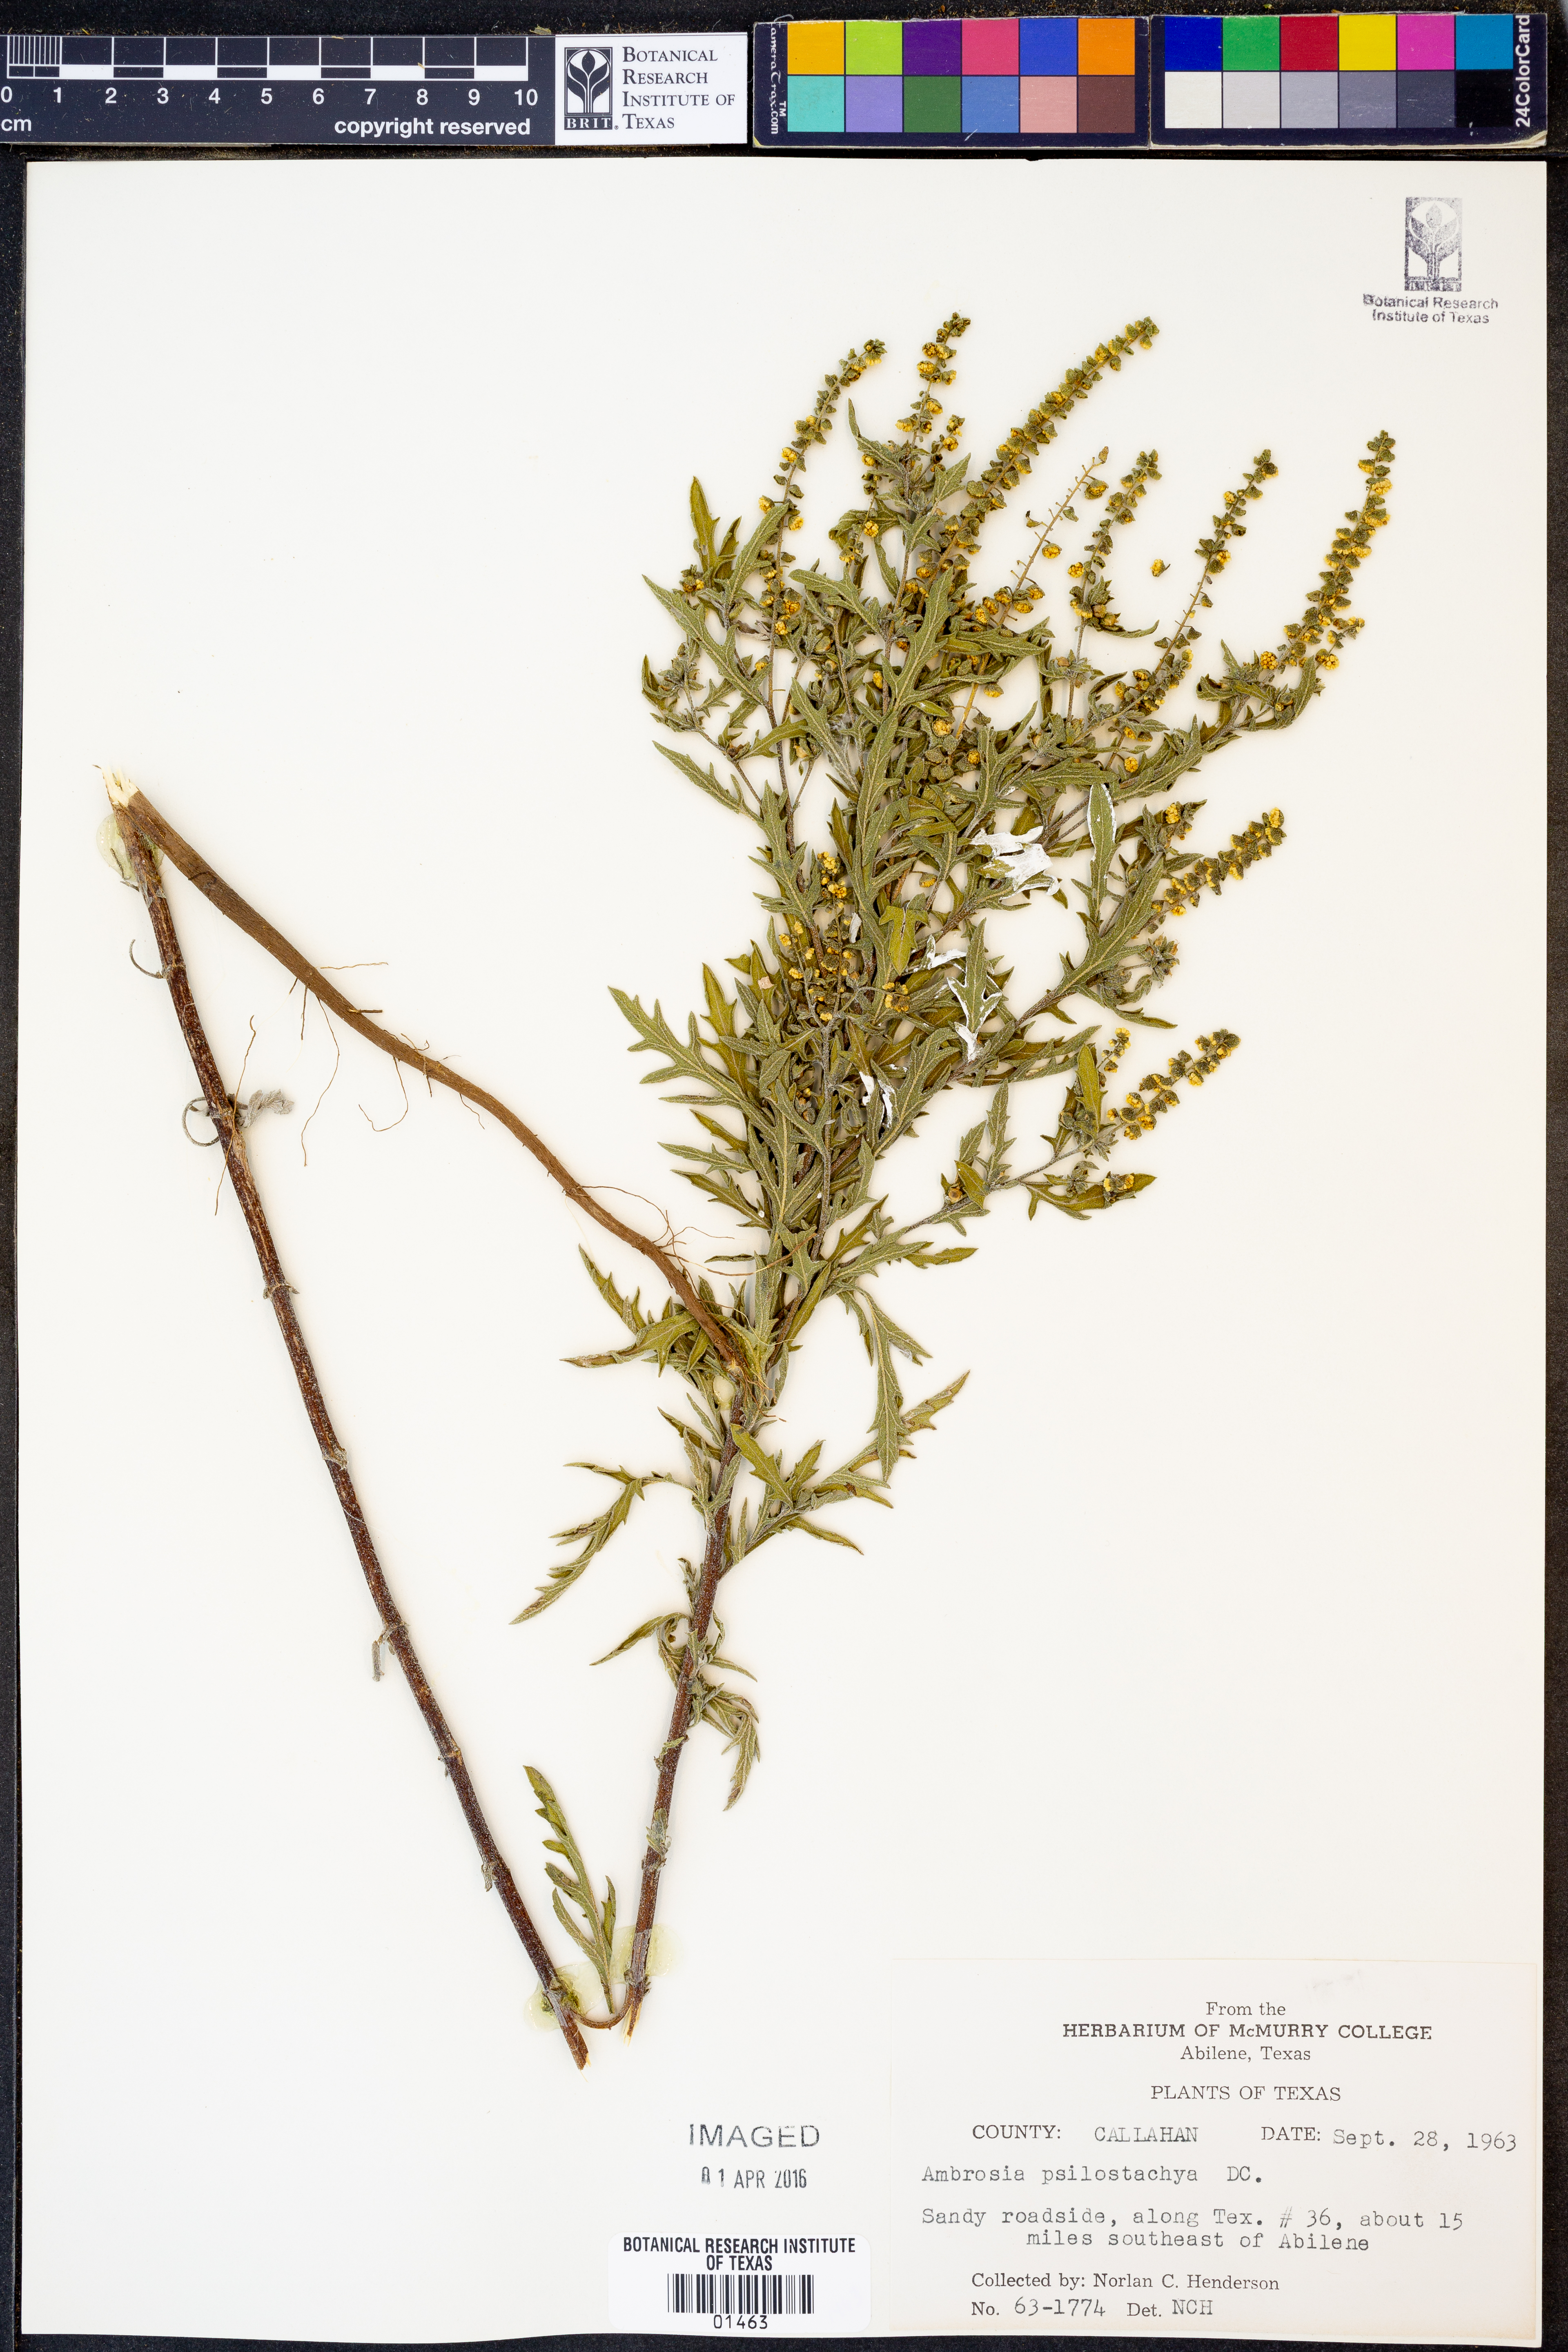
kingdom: Plantae
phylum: Tracheophyta
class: Magnoliopsida
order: Asterales
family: Asteraceae
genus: Ambrosia
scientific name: Ambrosia psilostachya
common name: Perennial ragweed
